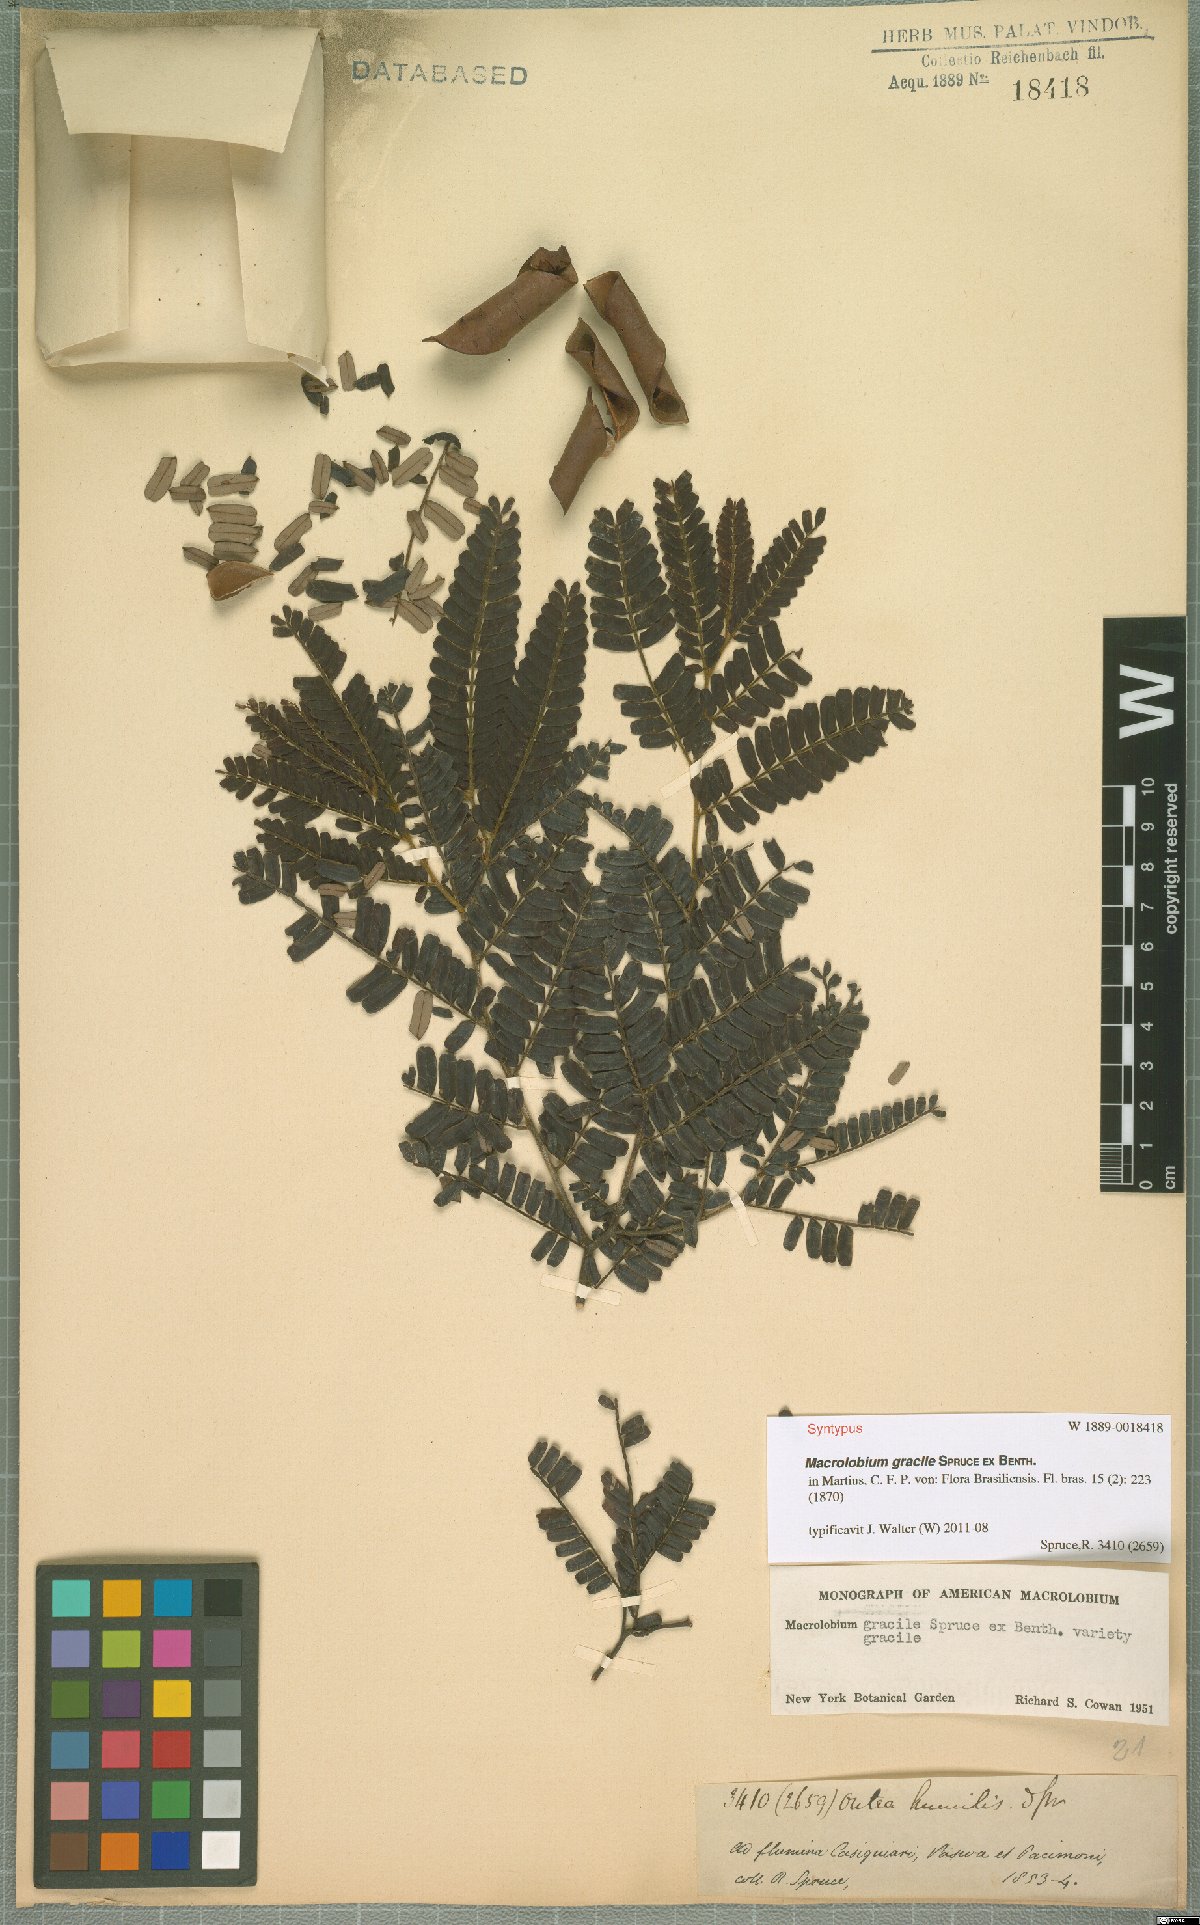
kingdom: Plantae
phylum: Tracheophyta
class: Magnoliopsida
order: Fabales
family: Fabaceae
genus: Macrolobium
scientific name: Macrolobium gracile
